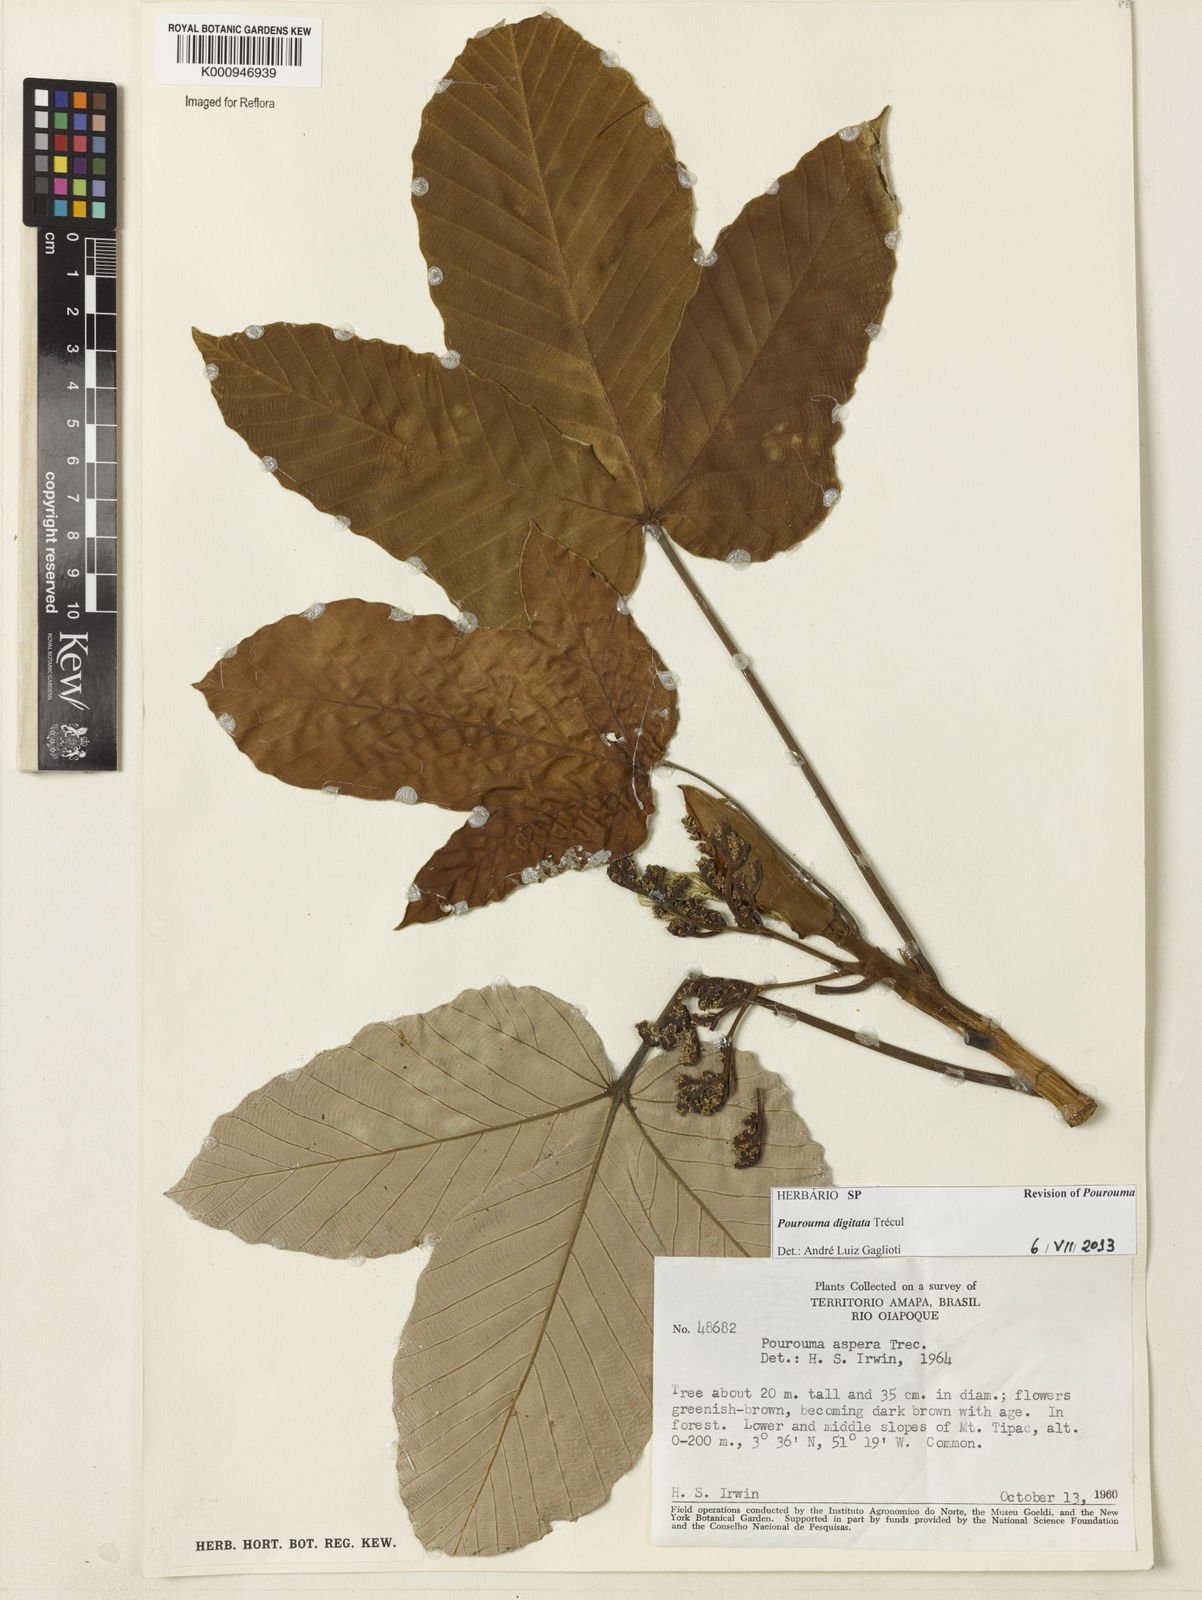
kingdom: Plantae
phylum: Tracheophyta
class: Magnoliopsida
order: Rosales
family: Urticaceae
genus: Pourouma
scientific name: Pourouma bicolor
